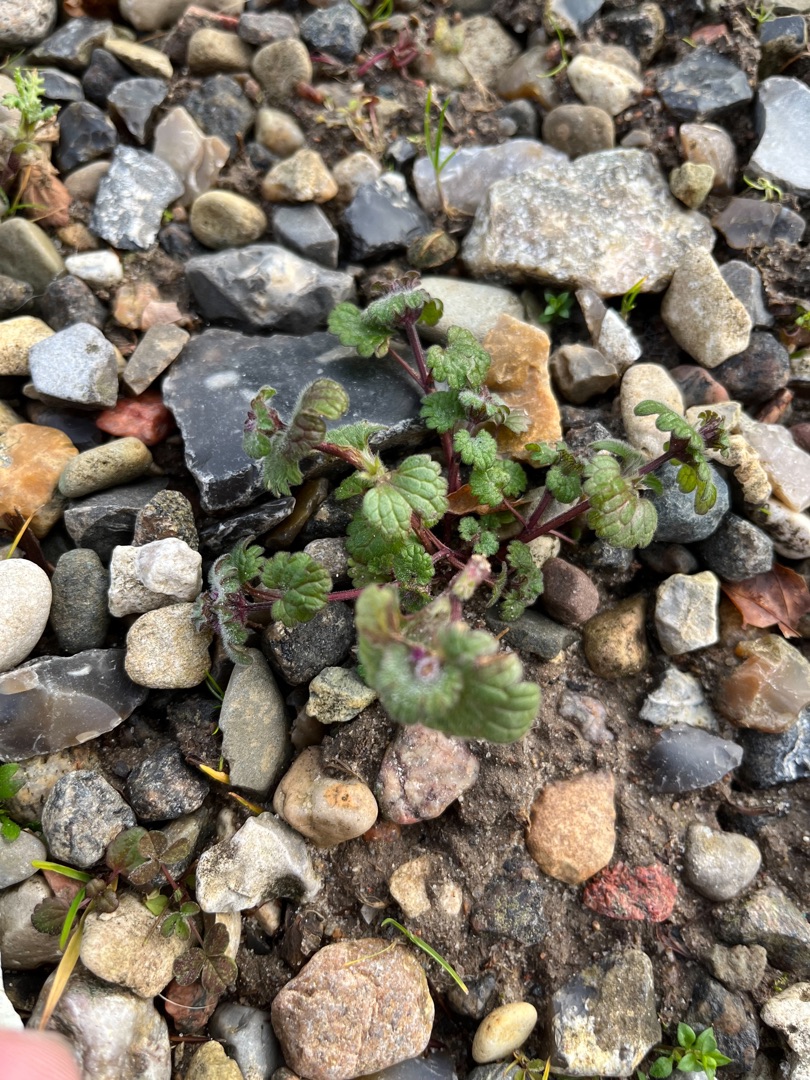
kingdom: Plantae
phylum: Tracheophyta
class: Magnoliopsida
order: Lamiales
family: Lamiaceae
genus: Lamium
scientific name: Lamium amplexicaule
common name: Liden tvetand
